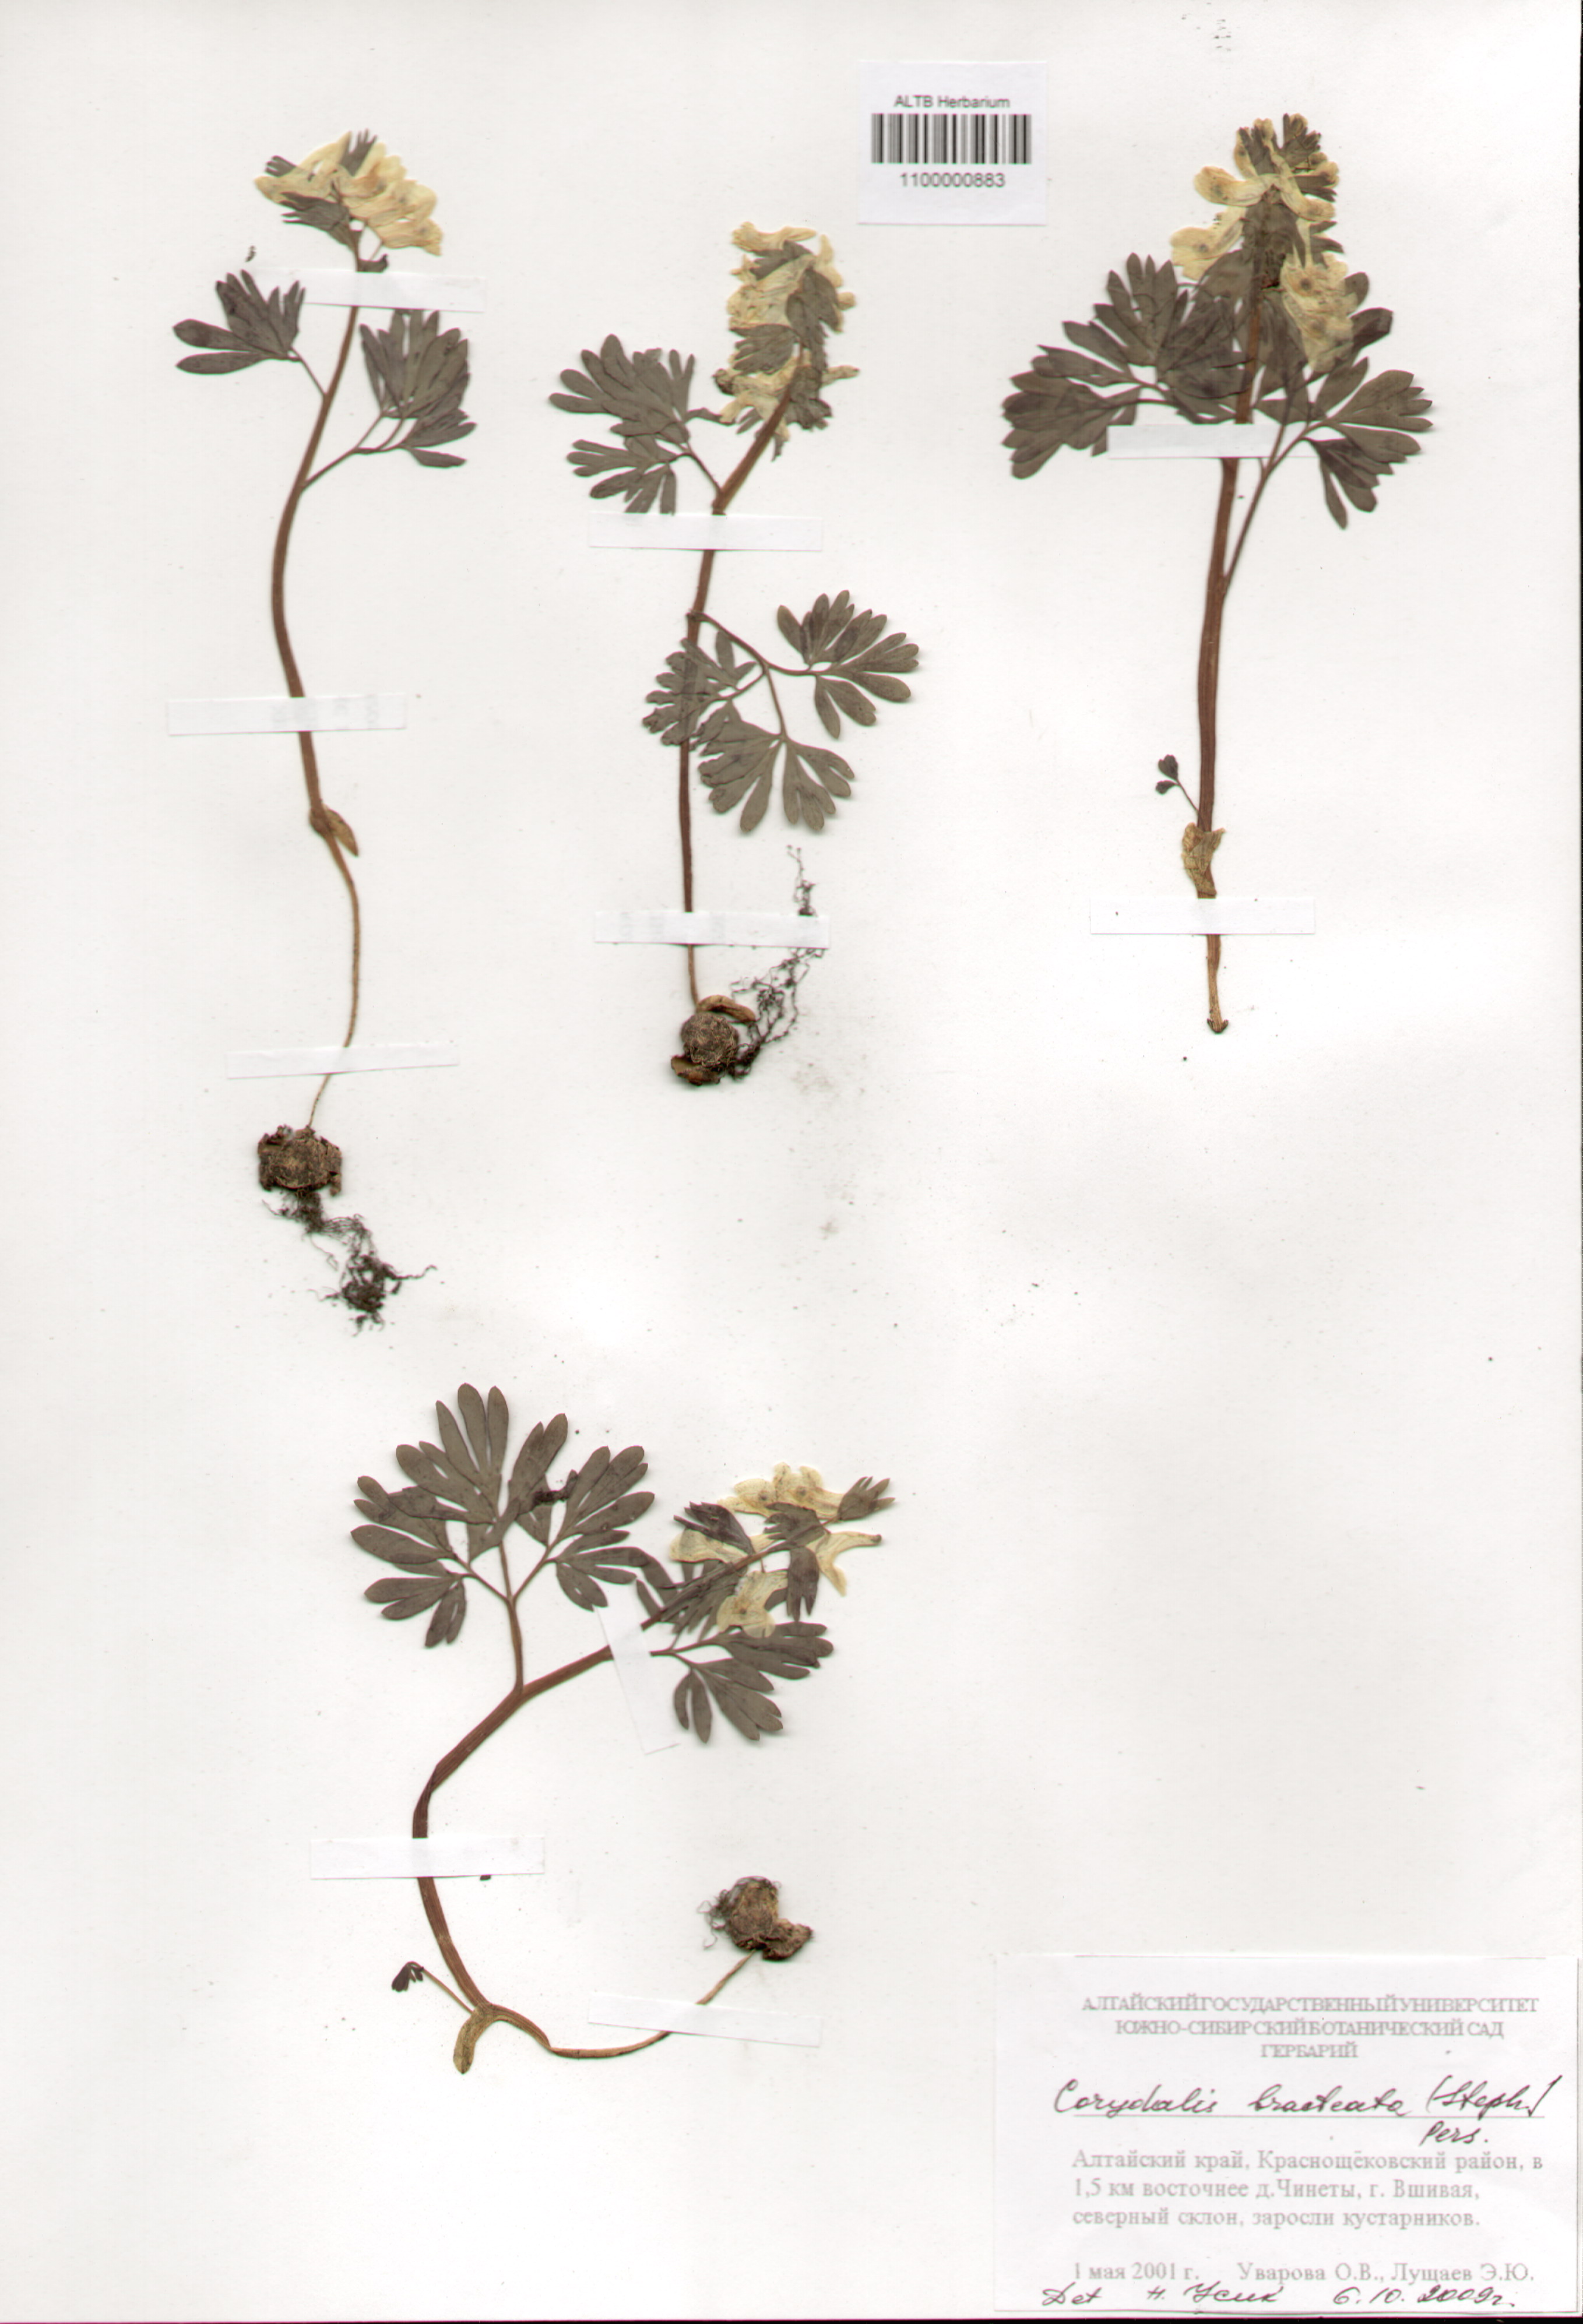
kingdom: Plantae
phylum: Tracheophyta
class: Magnoliopsida
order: Ranunculales
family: Papaveraceae
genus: Corydalis
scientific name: Corydalis bracteata
